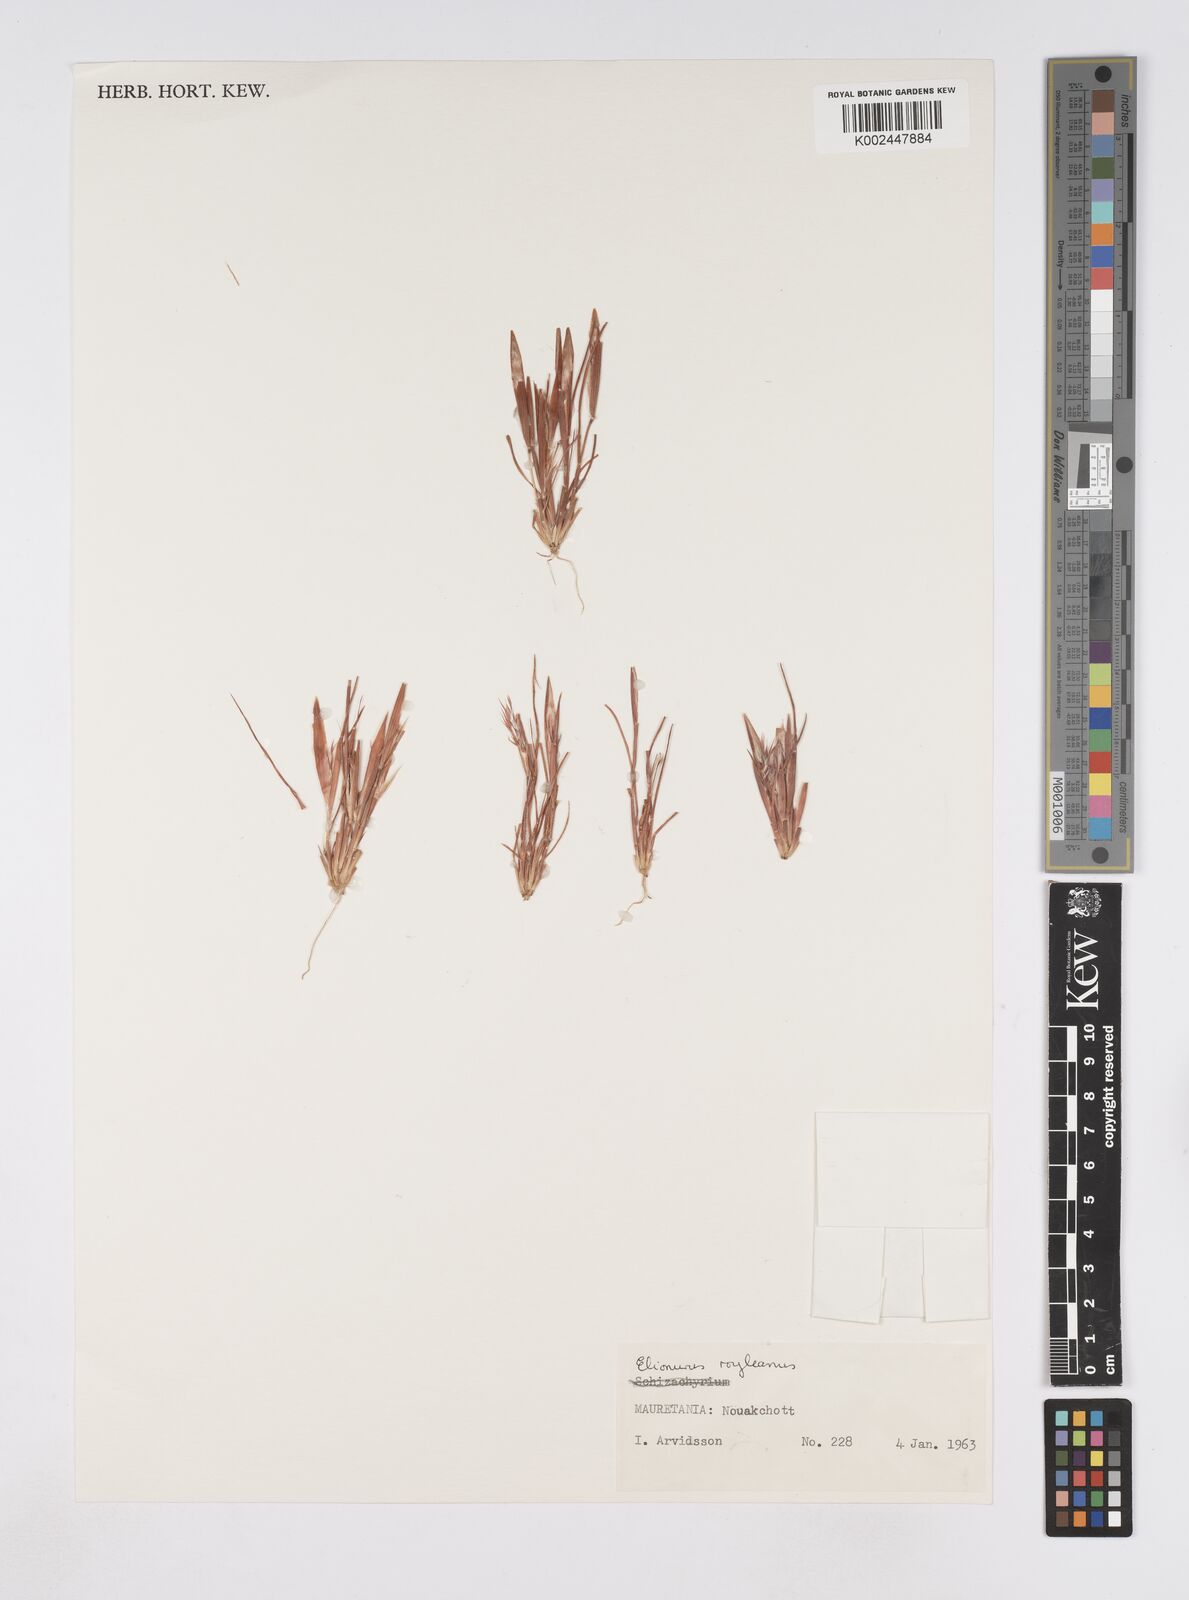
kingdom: Plantae
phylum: Tracheophyta
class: Liliopsida
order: Poales
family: Poaceae
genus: Elionurus
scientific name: Elionurus royleanus
